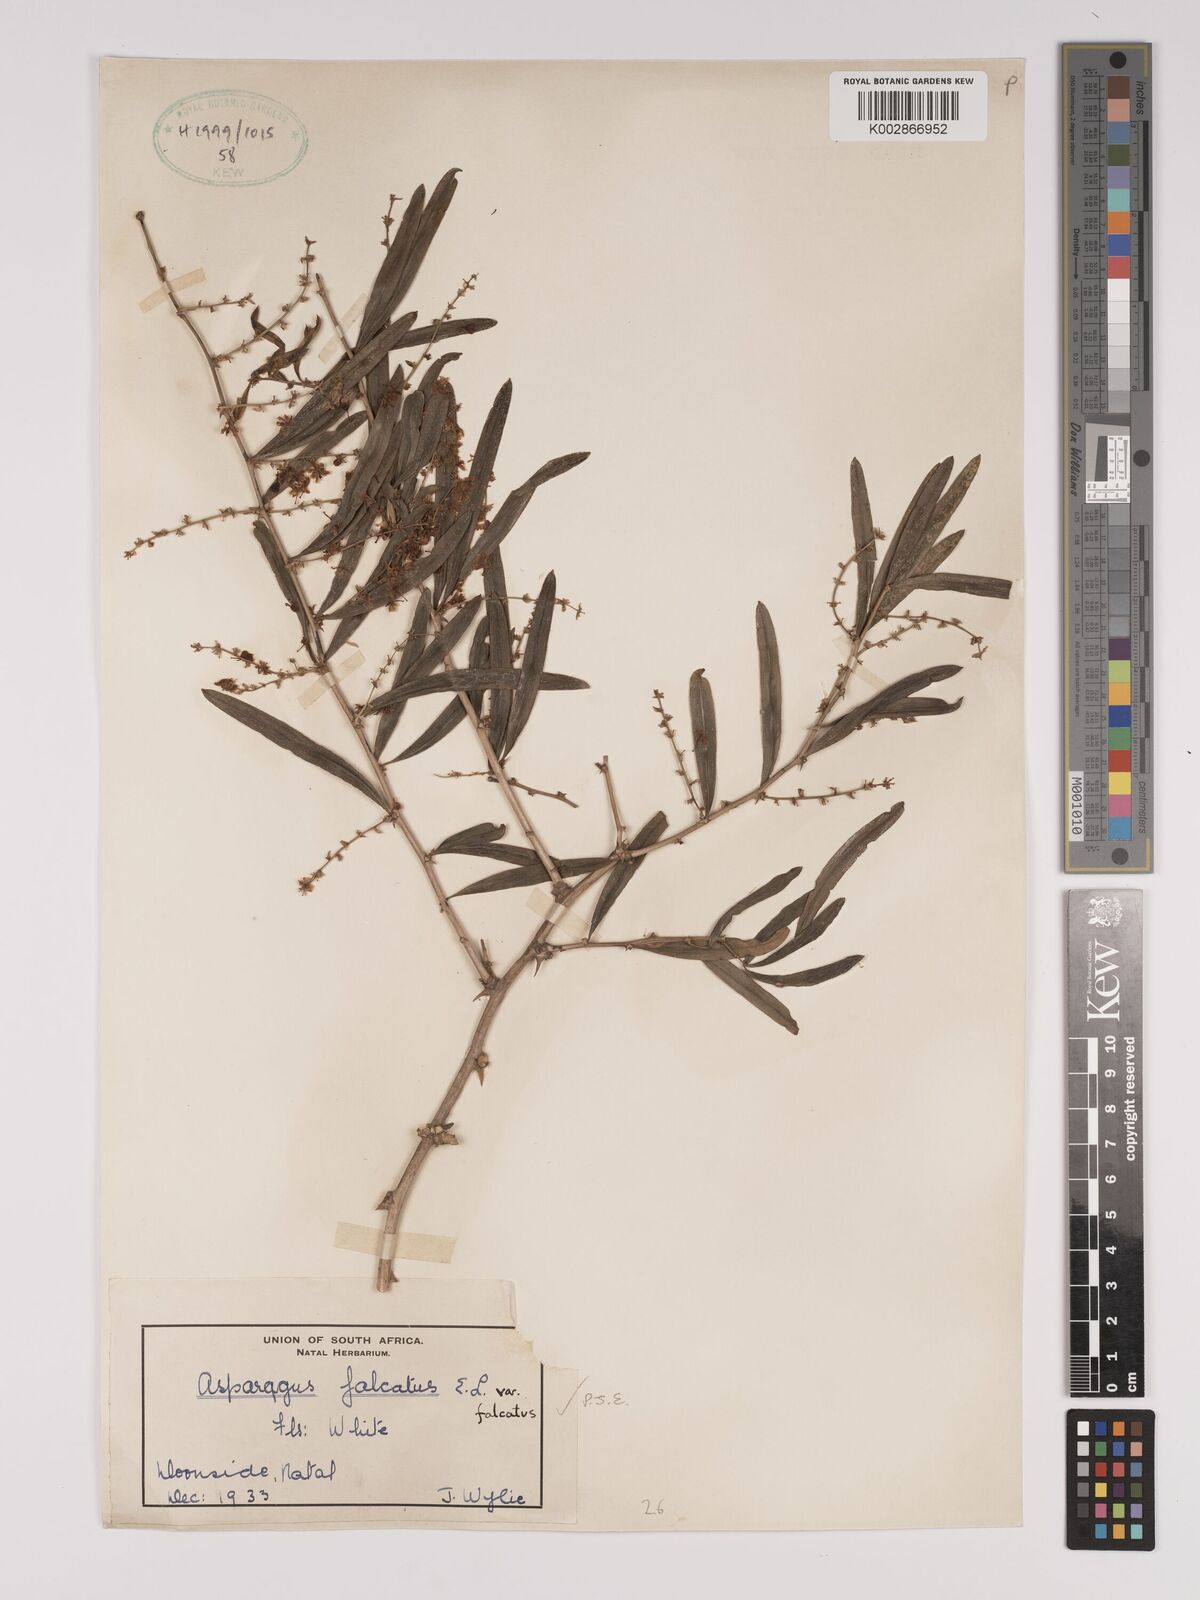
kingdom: Plantae
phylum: Tracheophyta
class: Liliopsida
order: Asparagales
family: Asparagaceae
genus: Asparagus
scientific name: Asparagus falcatus
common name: Asparagus
